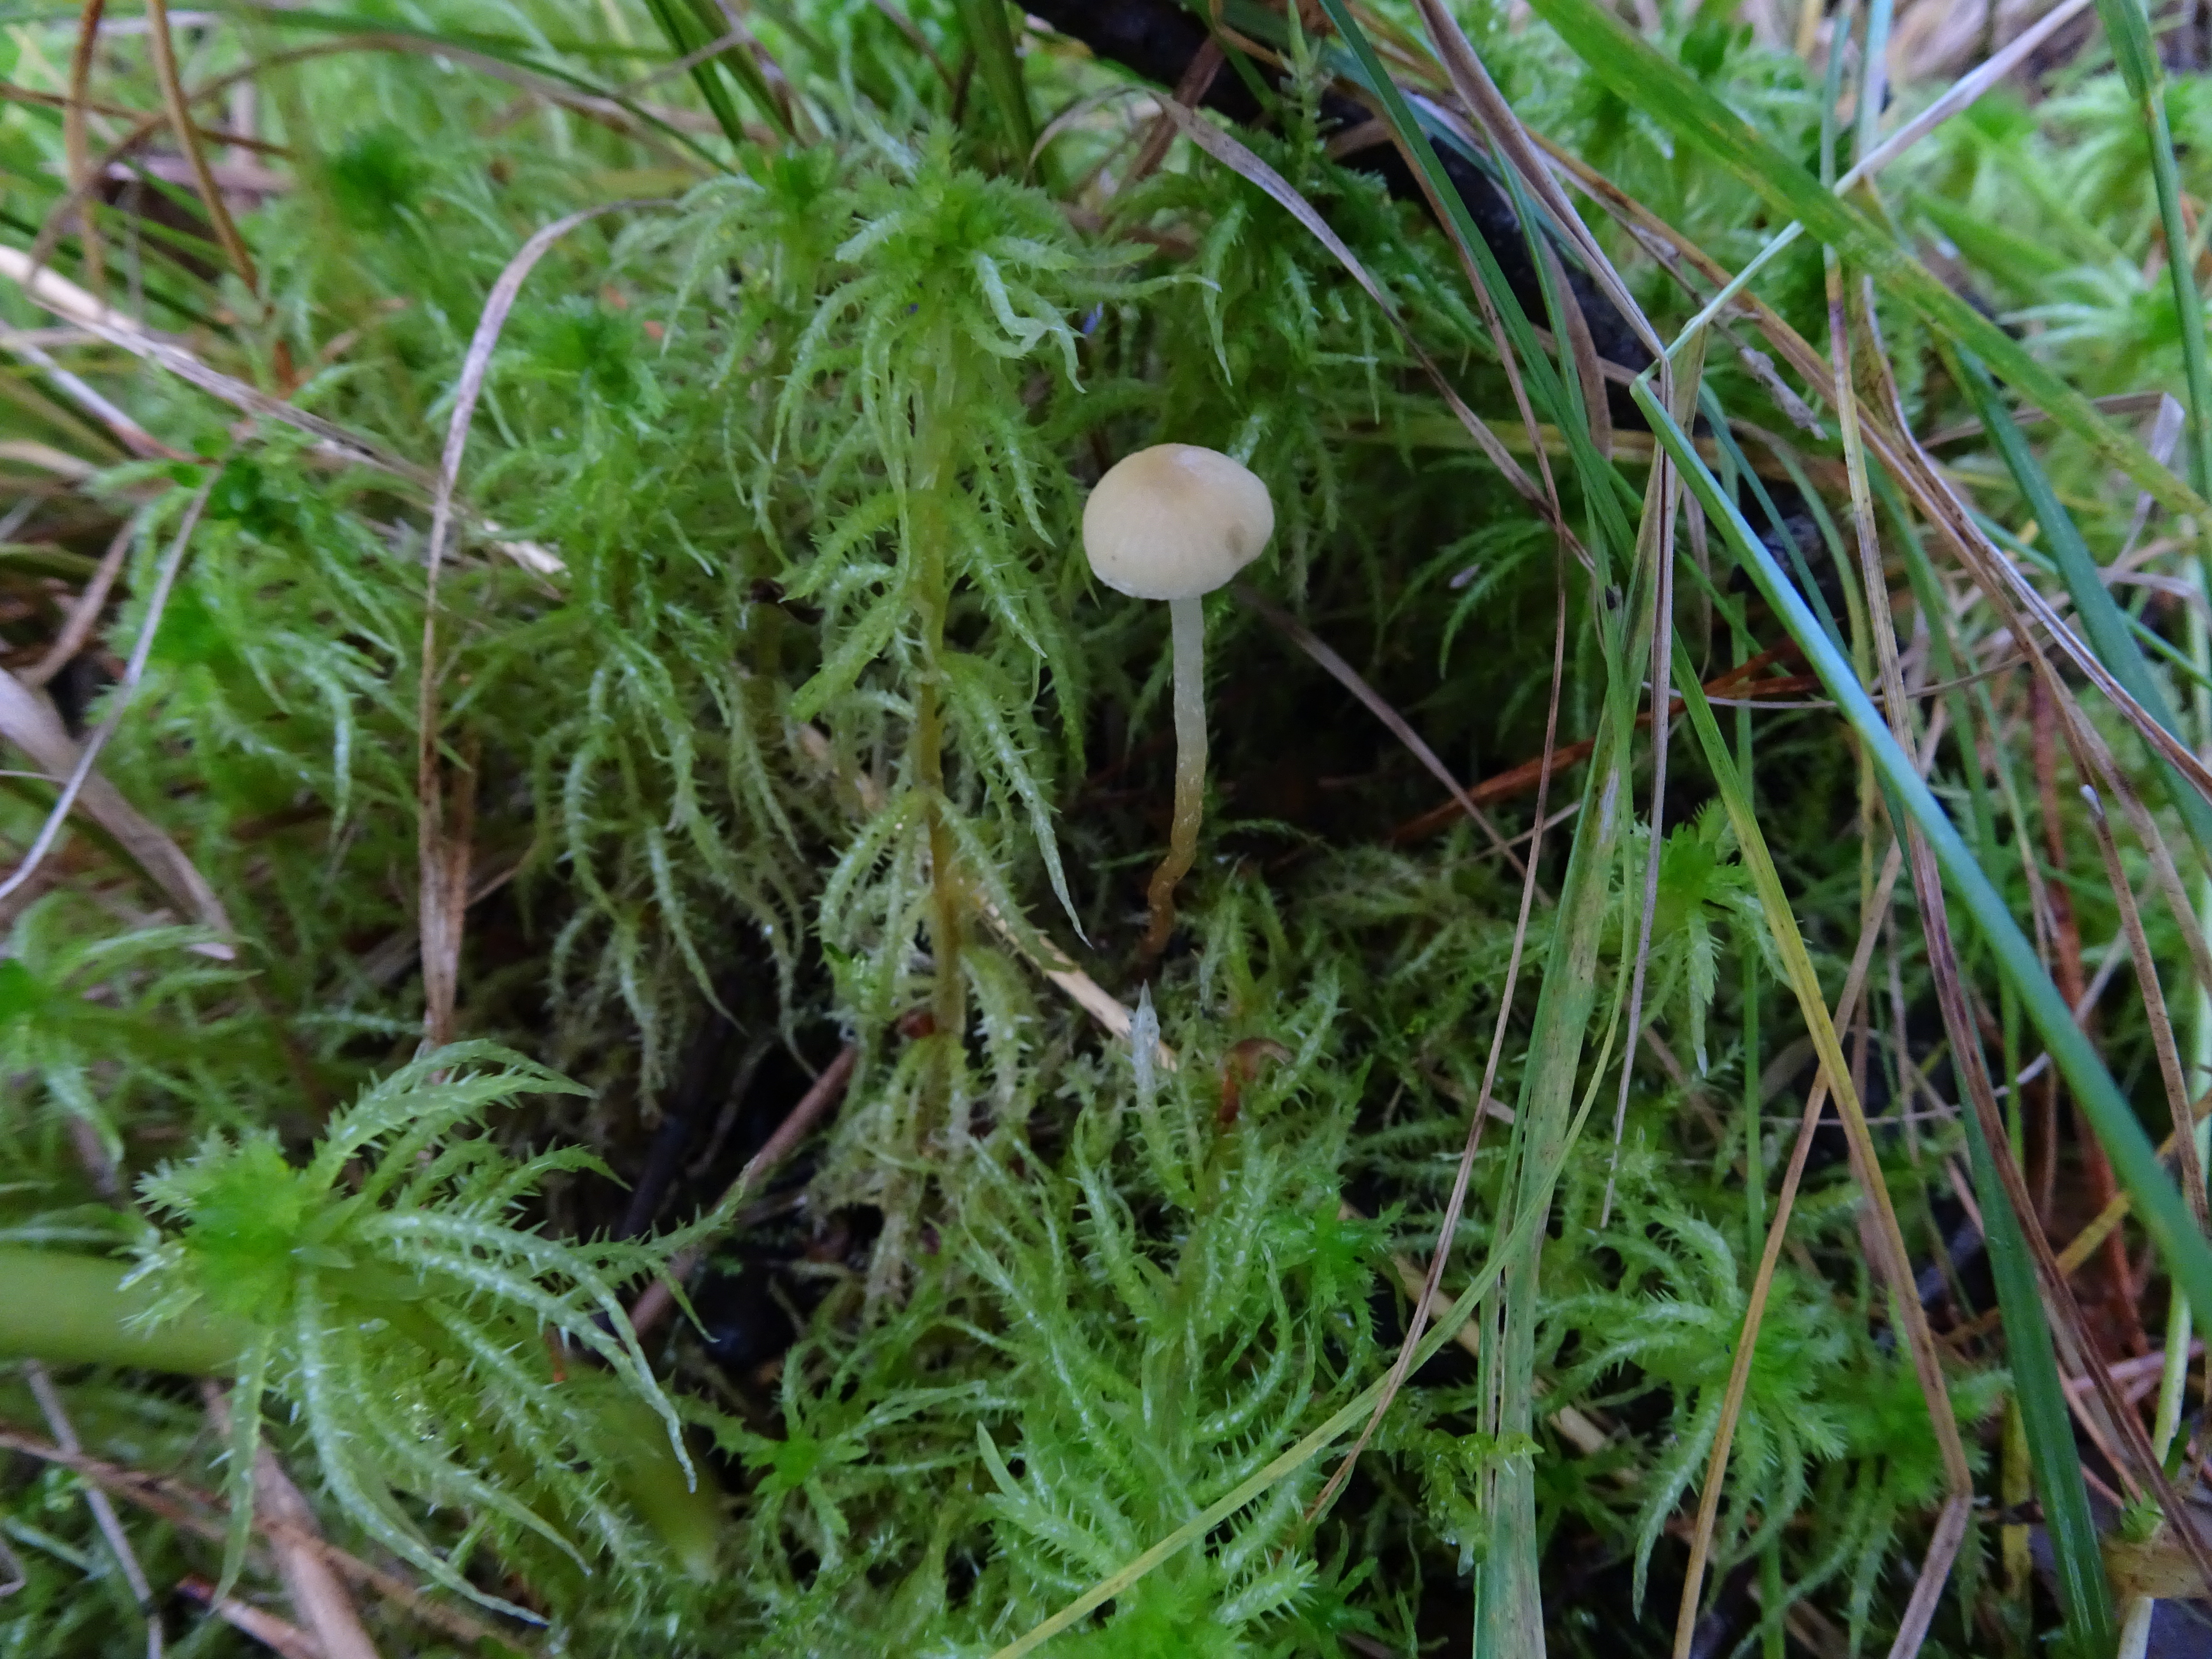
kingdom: Fungi
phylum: Basidiomycota
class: Agaricomycetes
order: Agaricales
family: Strophariaceae
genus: Hypholoma
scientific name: Hypholoma elongatum
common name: Sphagnum brownie
